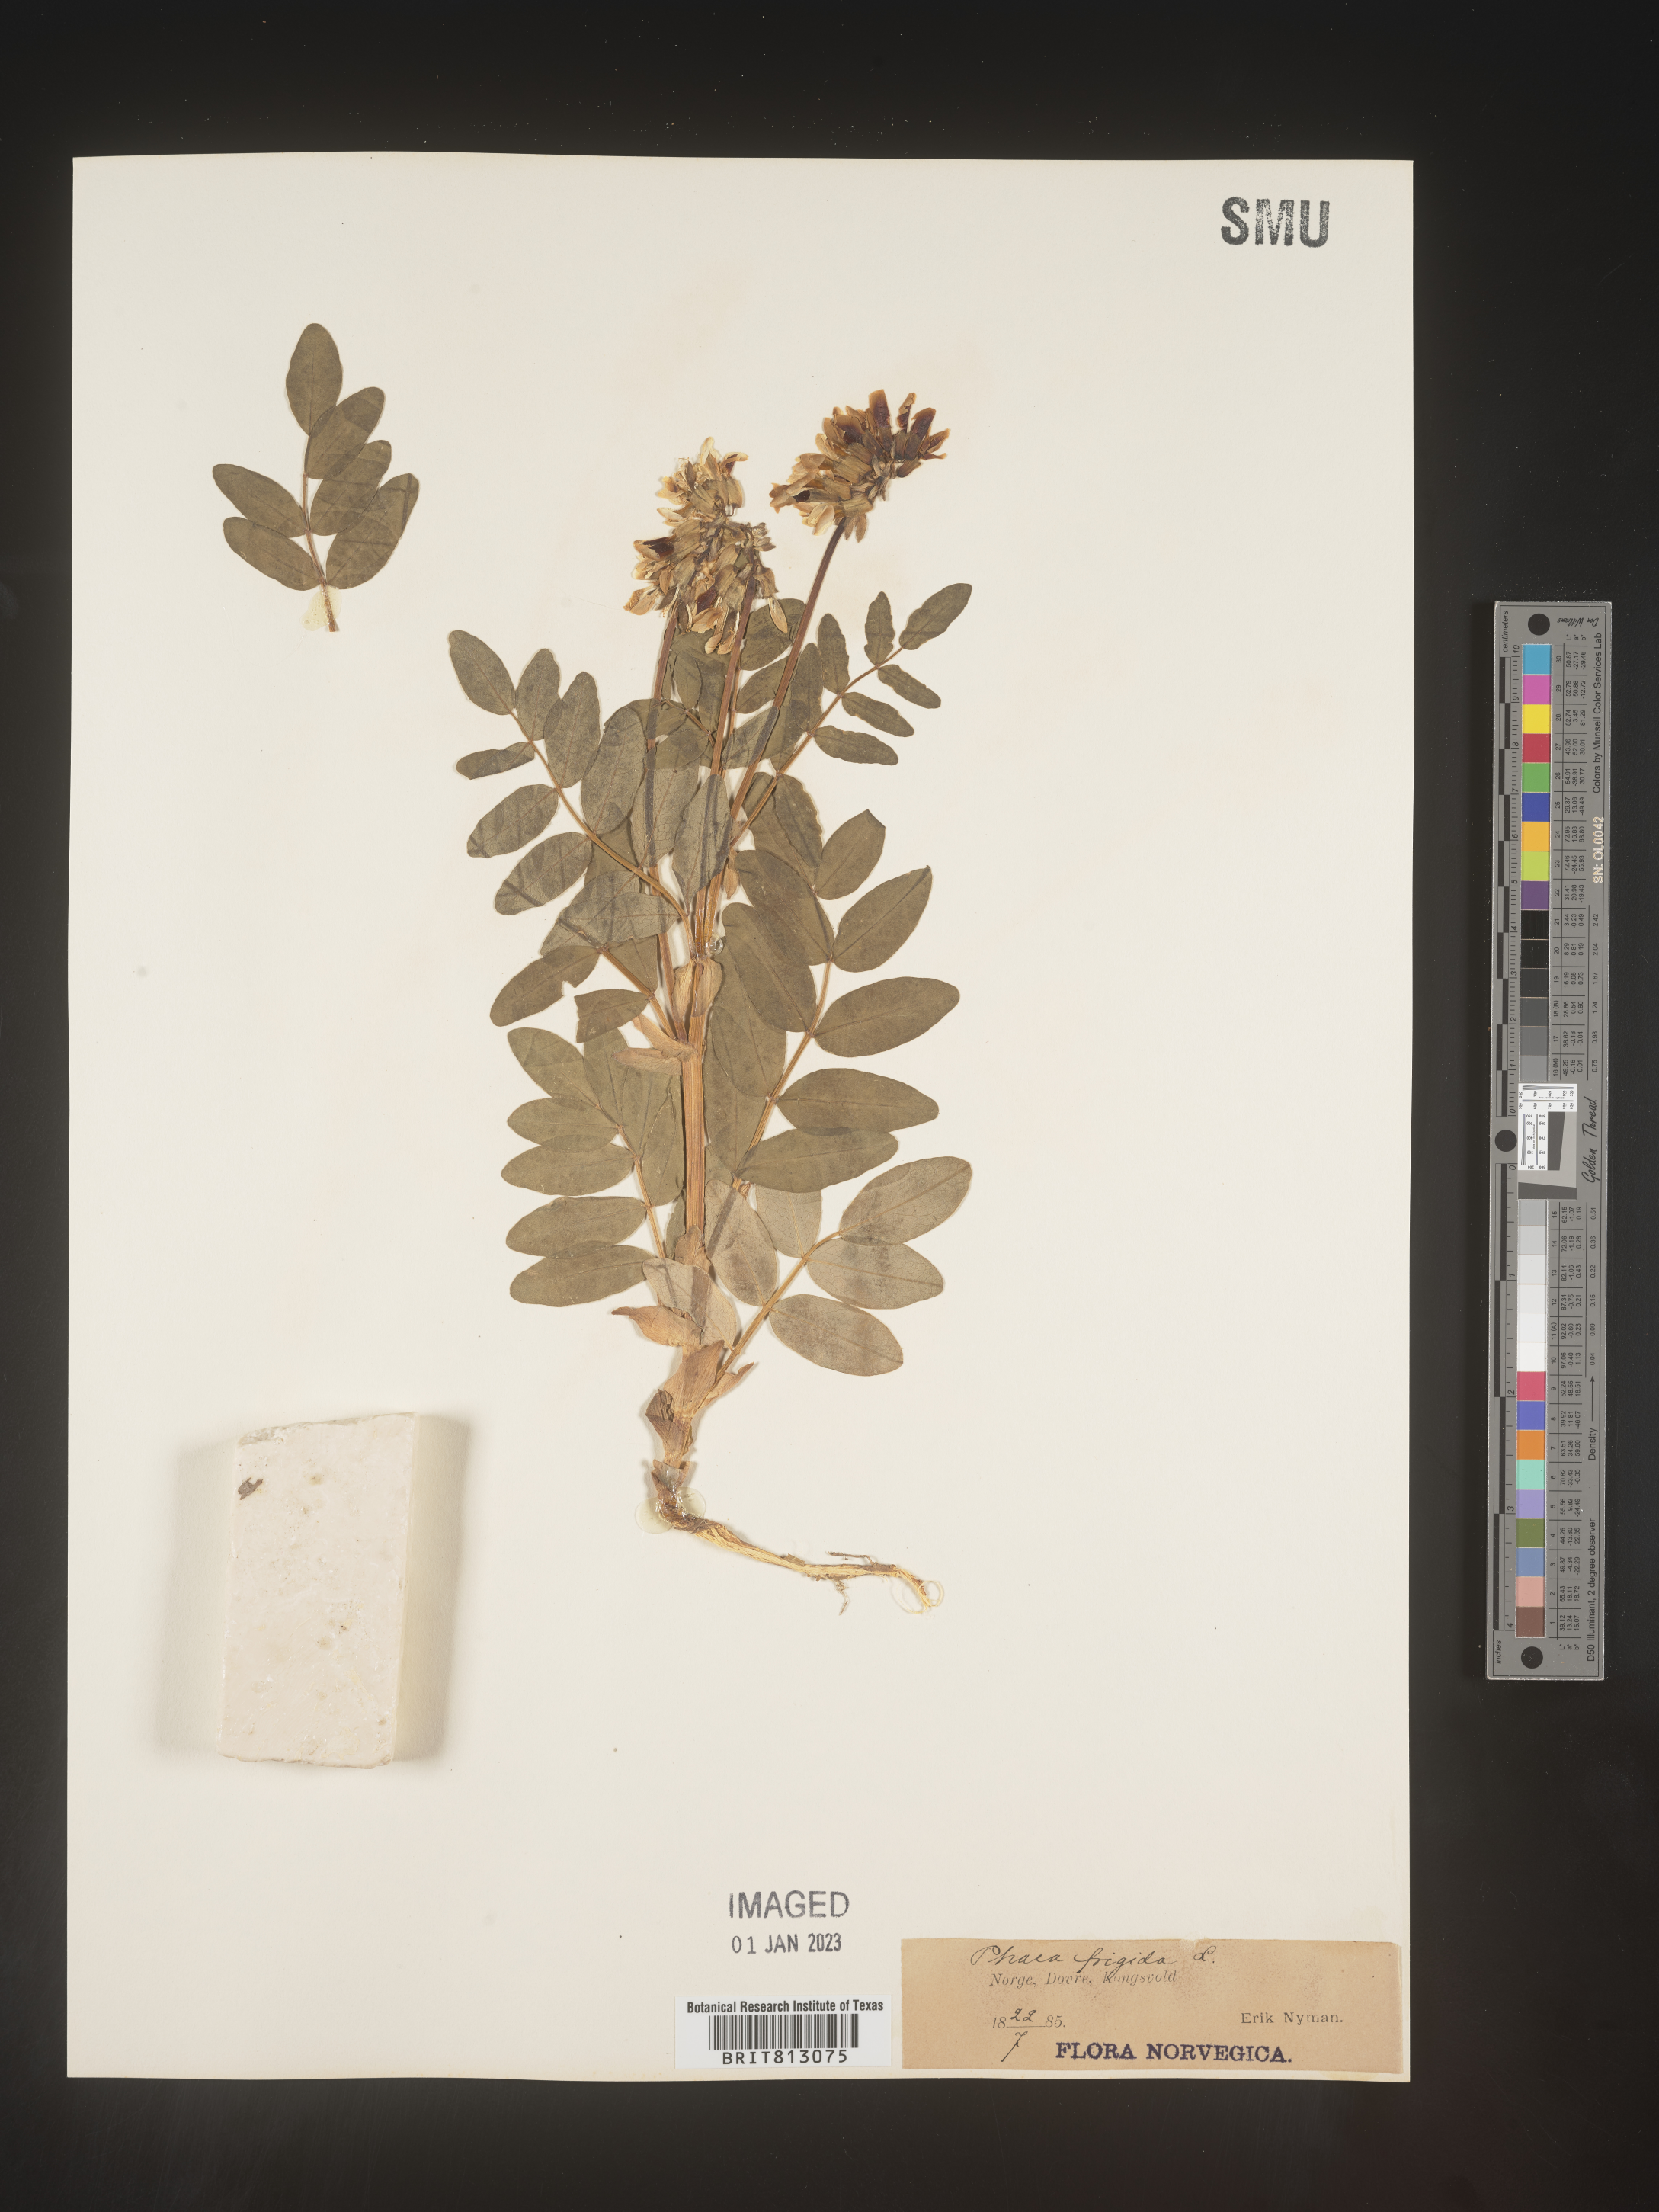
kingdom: Plantae
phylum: Tracheophyta
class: Magnoliopsida
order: Fabales
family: Fabaceae
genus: Astragalus
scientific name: Astragalus
